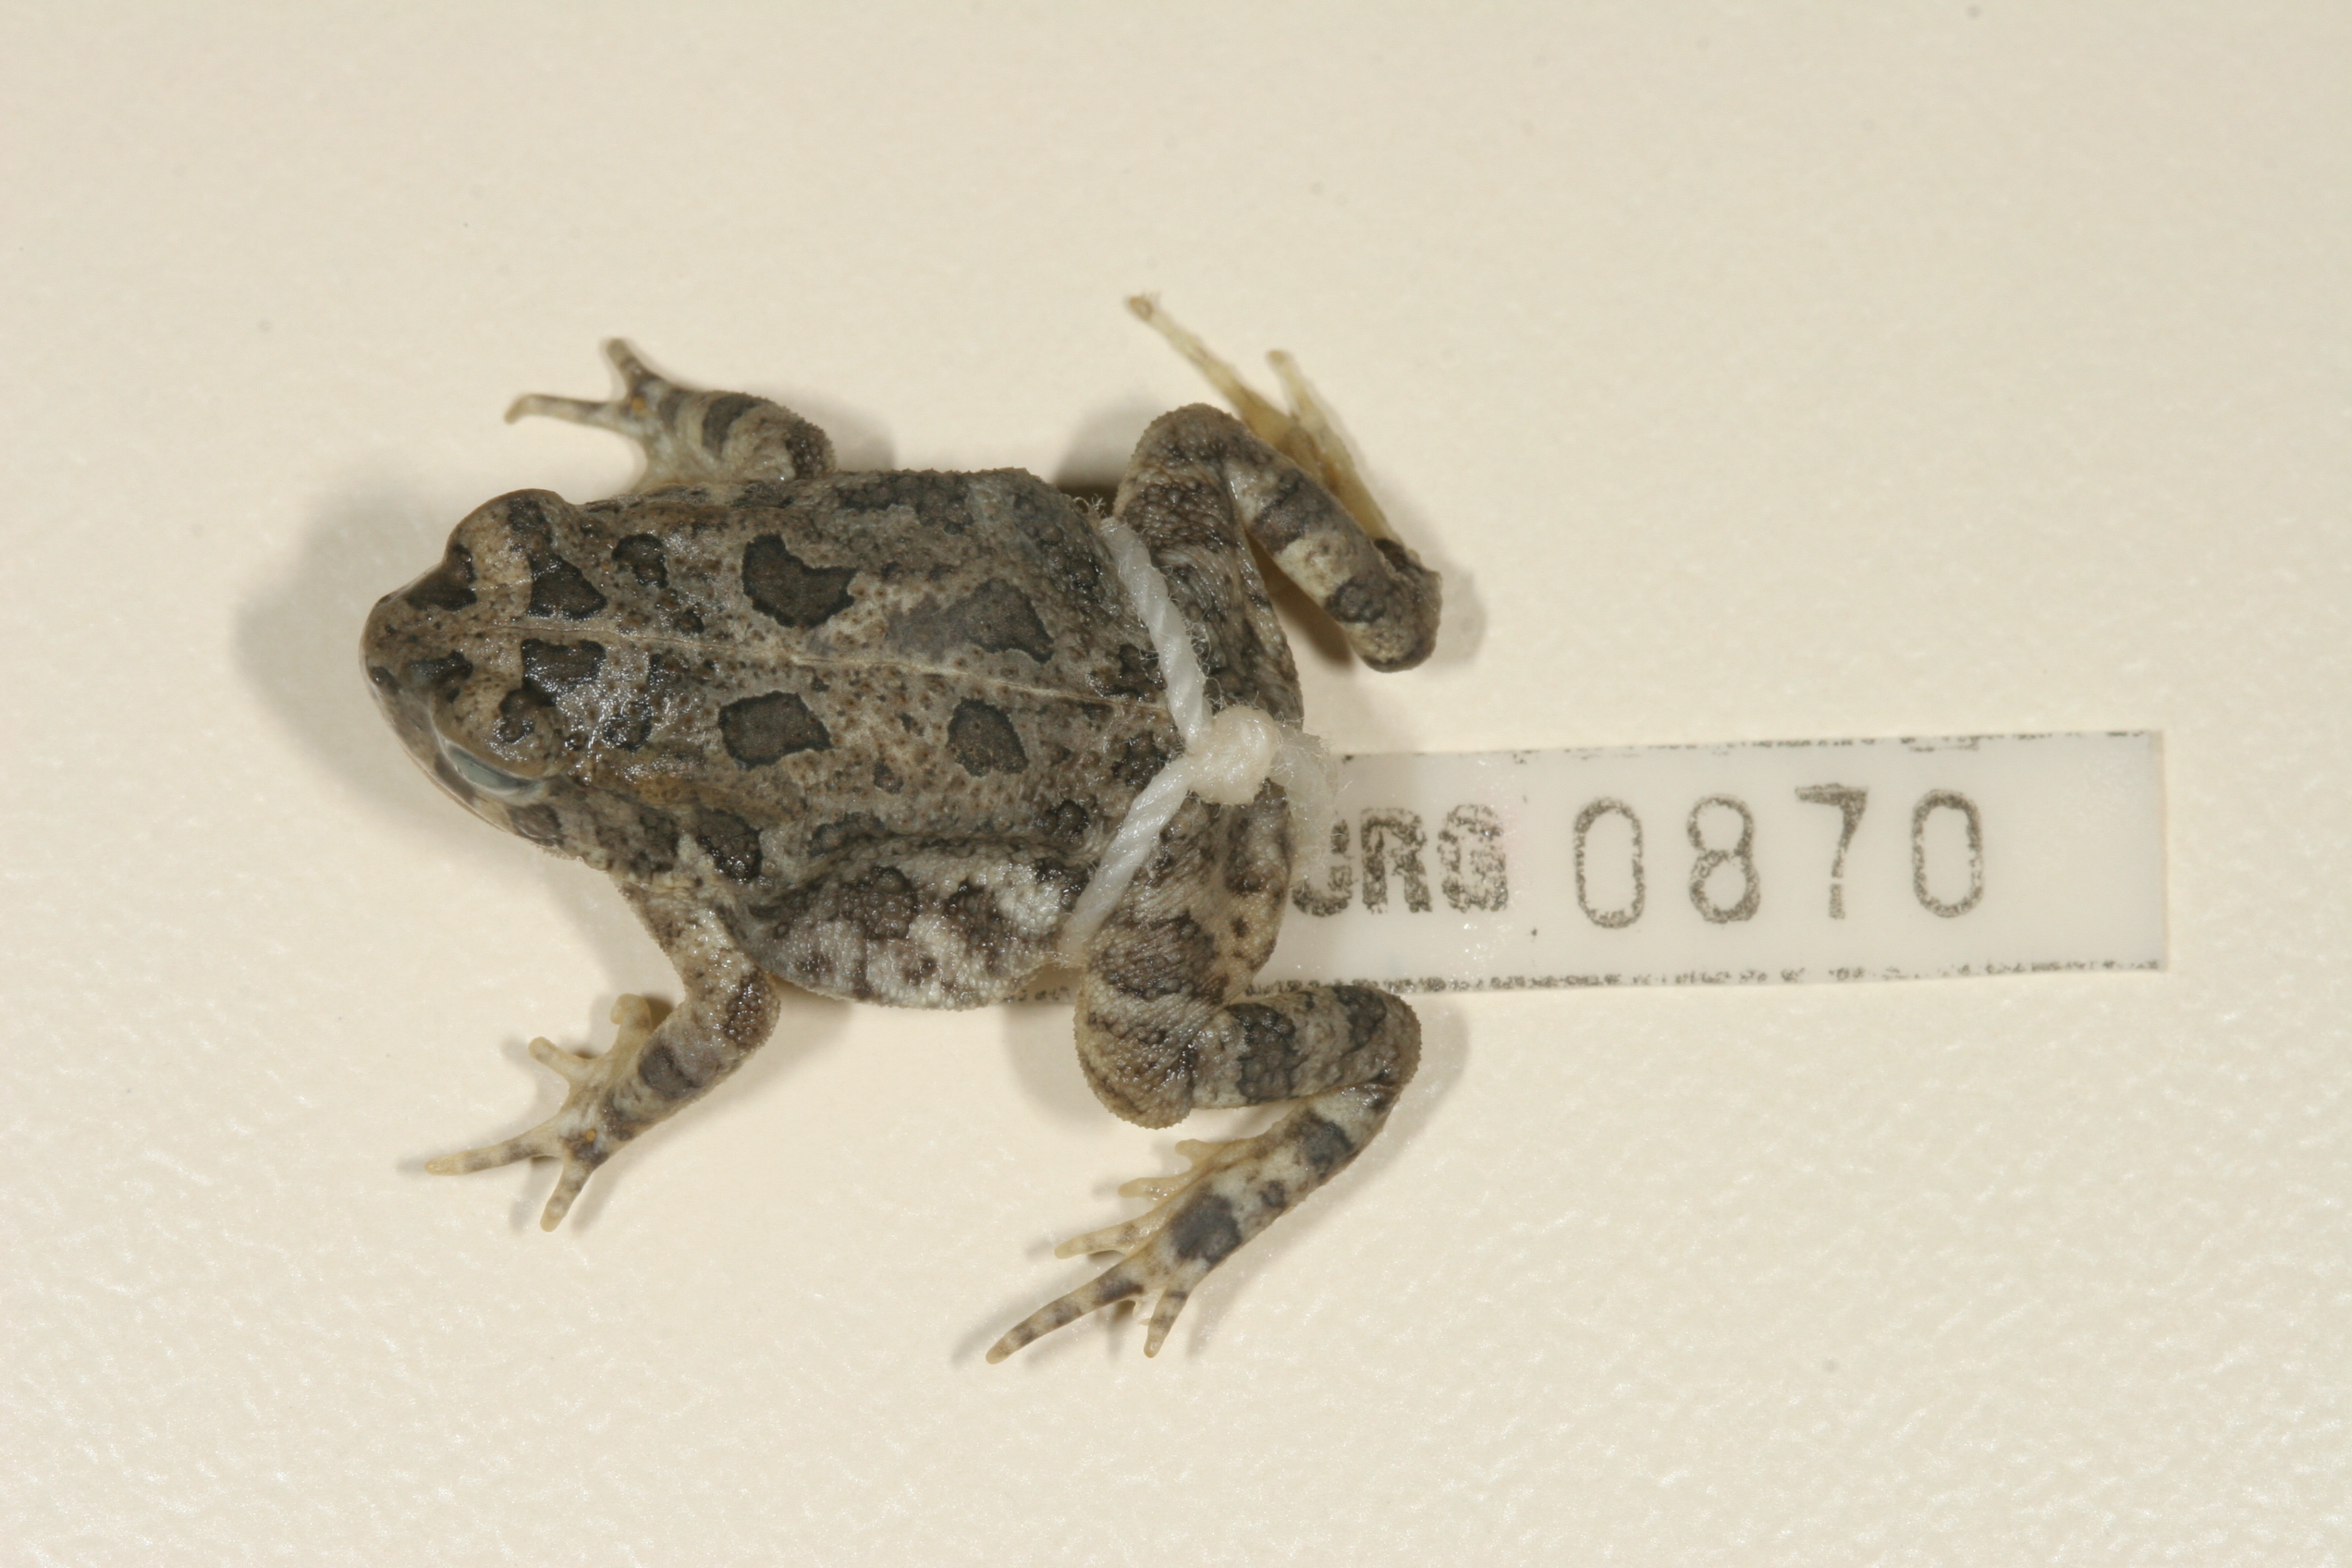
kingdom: Animalia
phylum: Chordata
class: Amphibia
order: Anura
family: Bufonidae
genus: Sclerophrys
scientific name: Sclerophrys gutturalis
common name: African common toad
